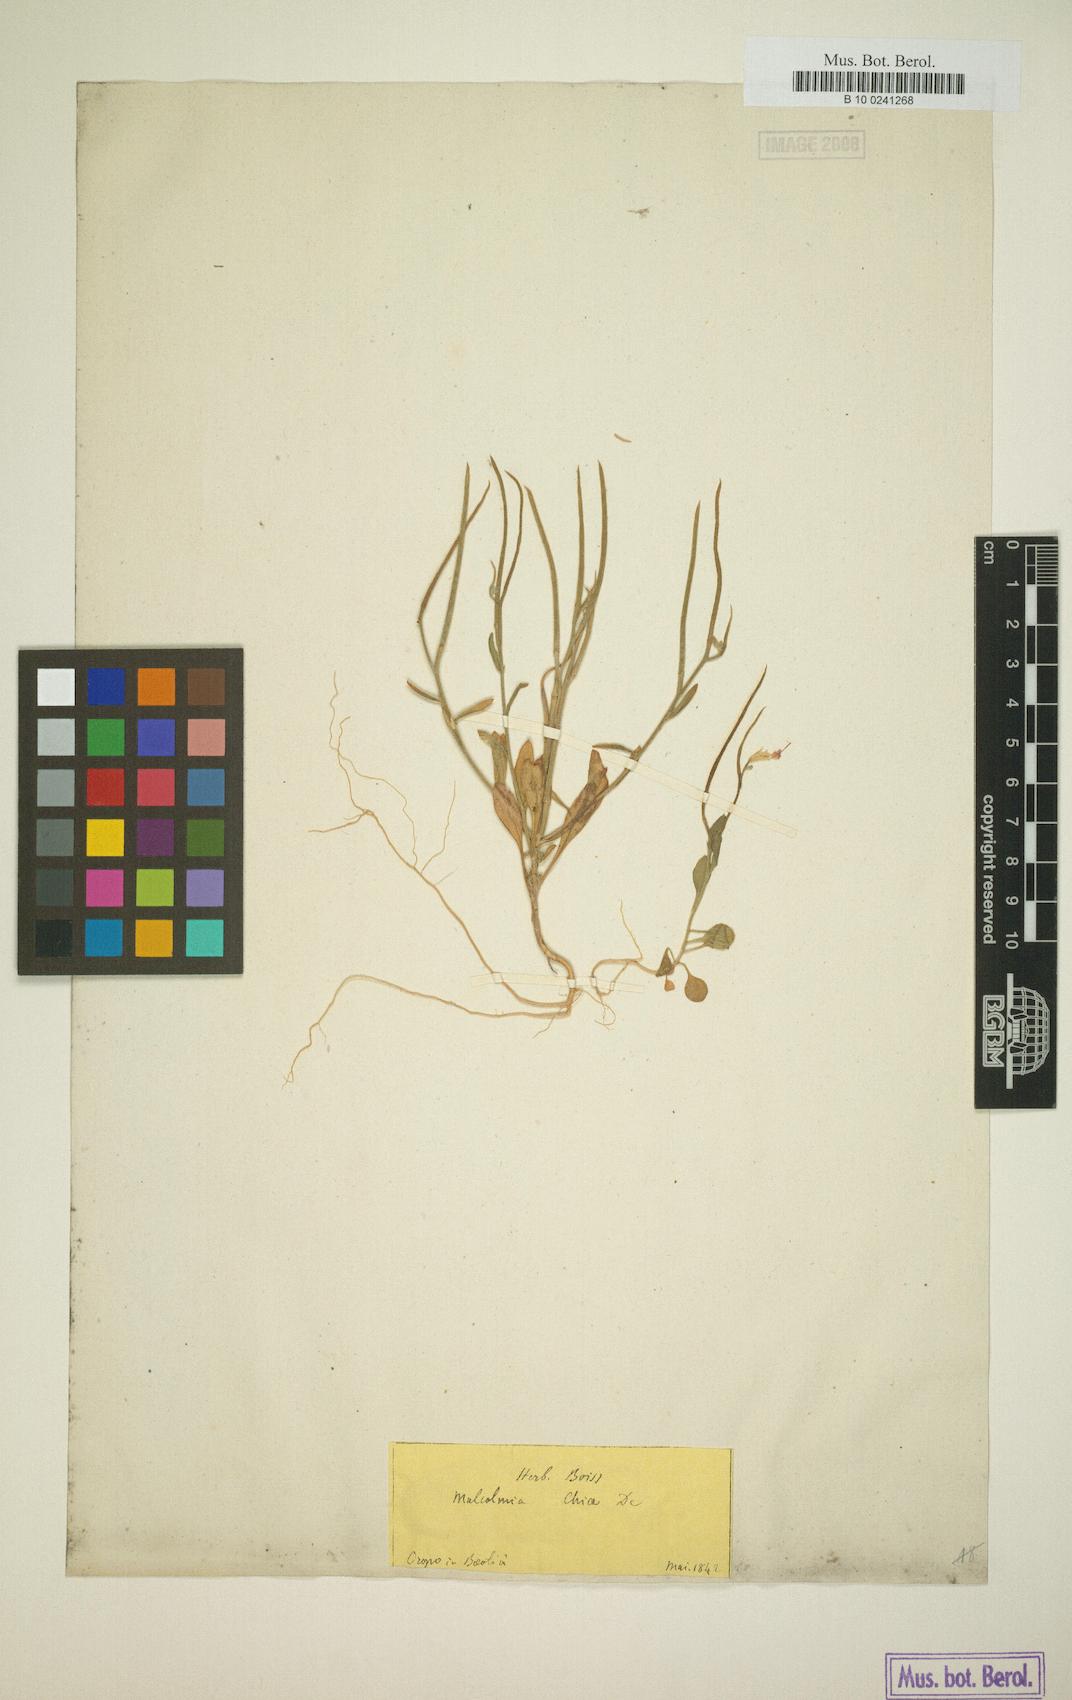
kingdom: Plantae
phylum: Tracheophyta
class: Magnoliopsida
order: Brassicales
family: Brassicaceae
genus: Malcolmia
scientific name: Malcolmia chia
